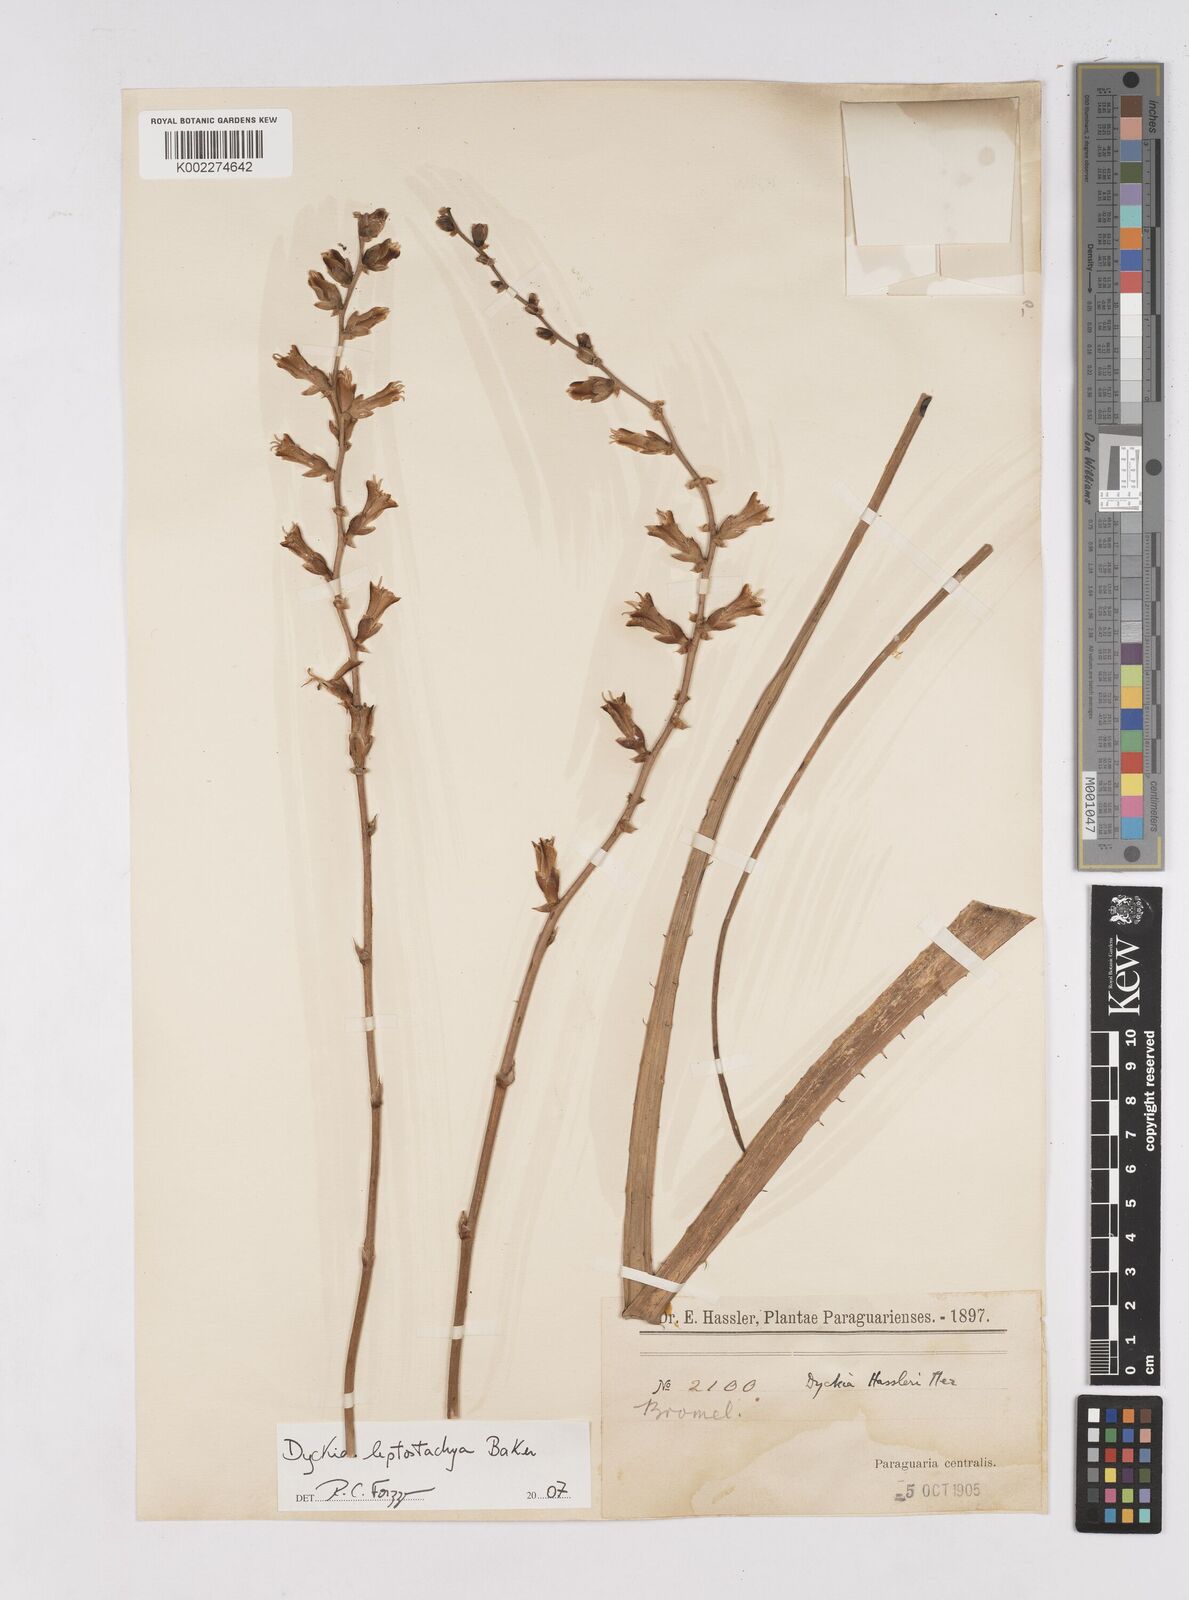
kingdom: Plantae
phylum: Tracheophyta
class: Liliopsida
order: Poales
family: Bromeliaceae
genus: Dyckia
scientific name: Dyckia leptostachya
